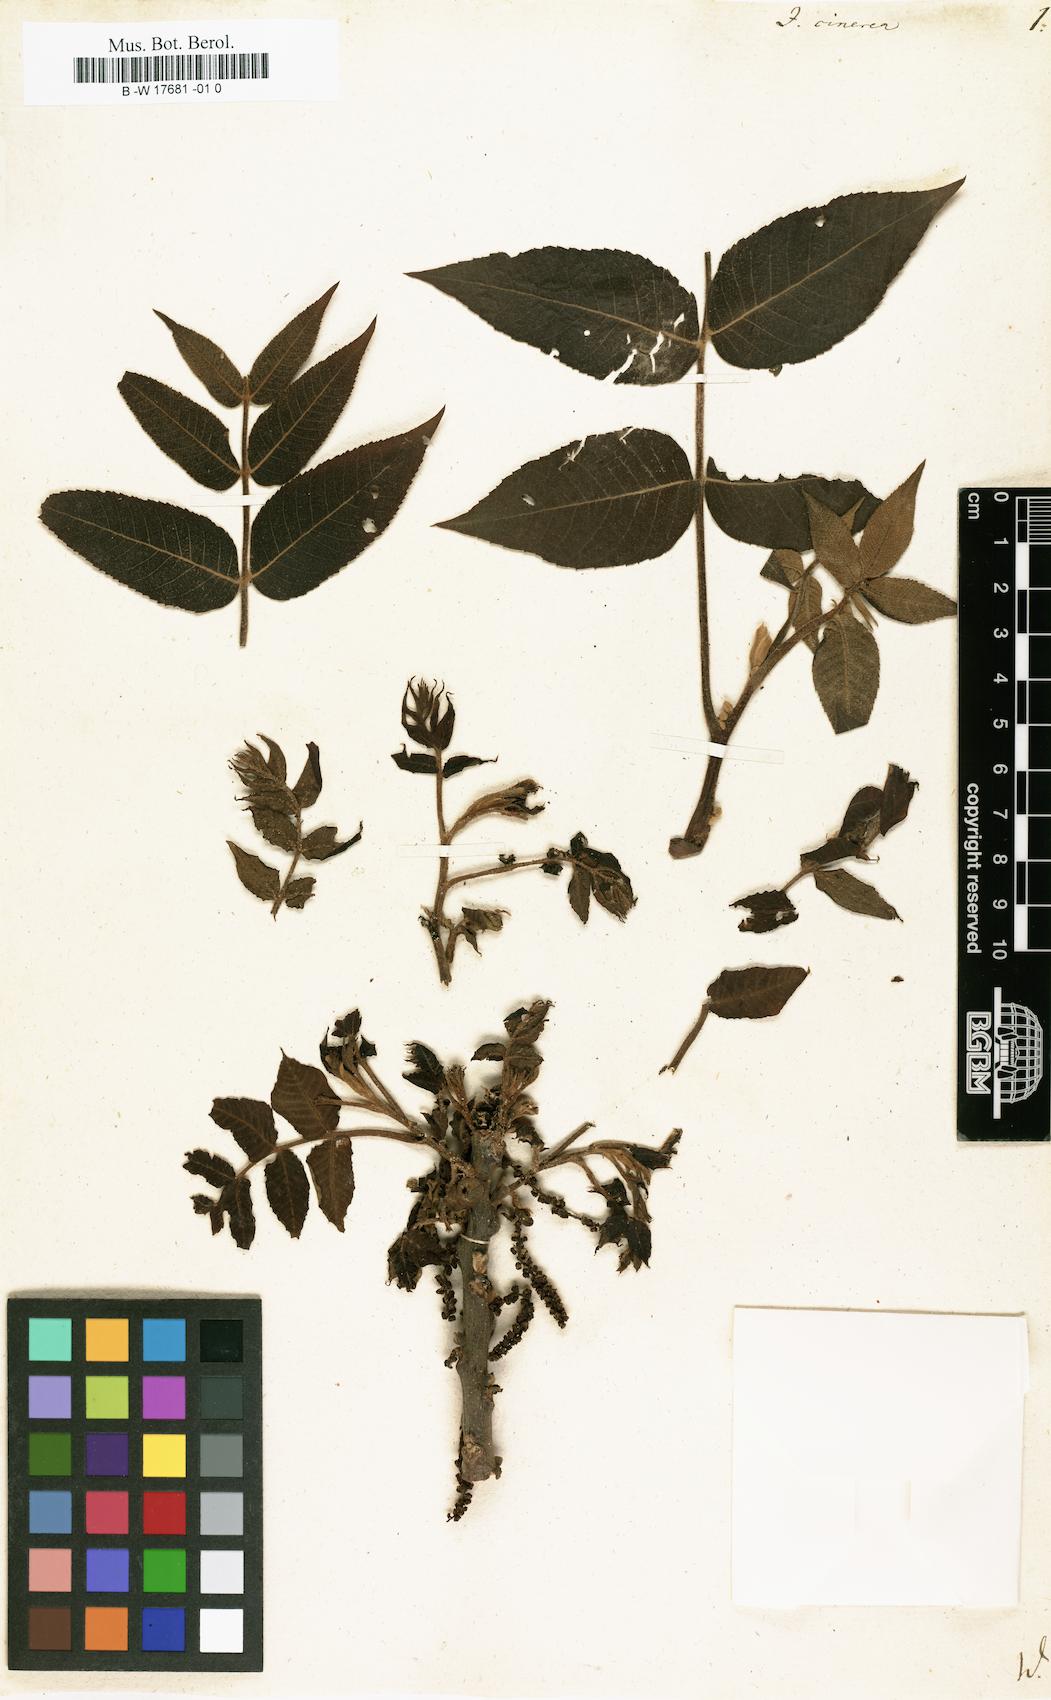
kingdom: Plantae
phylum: Tracheophyta
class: Magnoliopsida
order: Fagales
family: Juglandaceae
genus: Juglans
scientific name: Juglans cinerea
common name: Butternut
